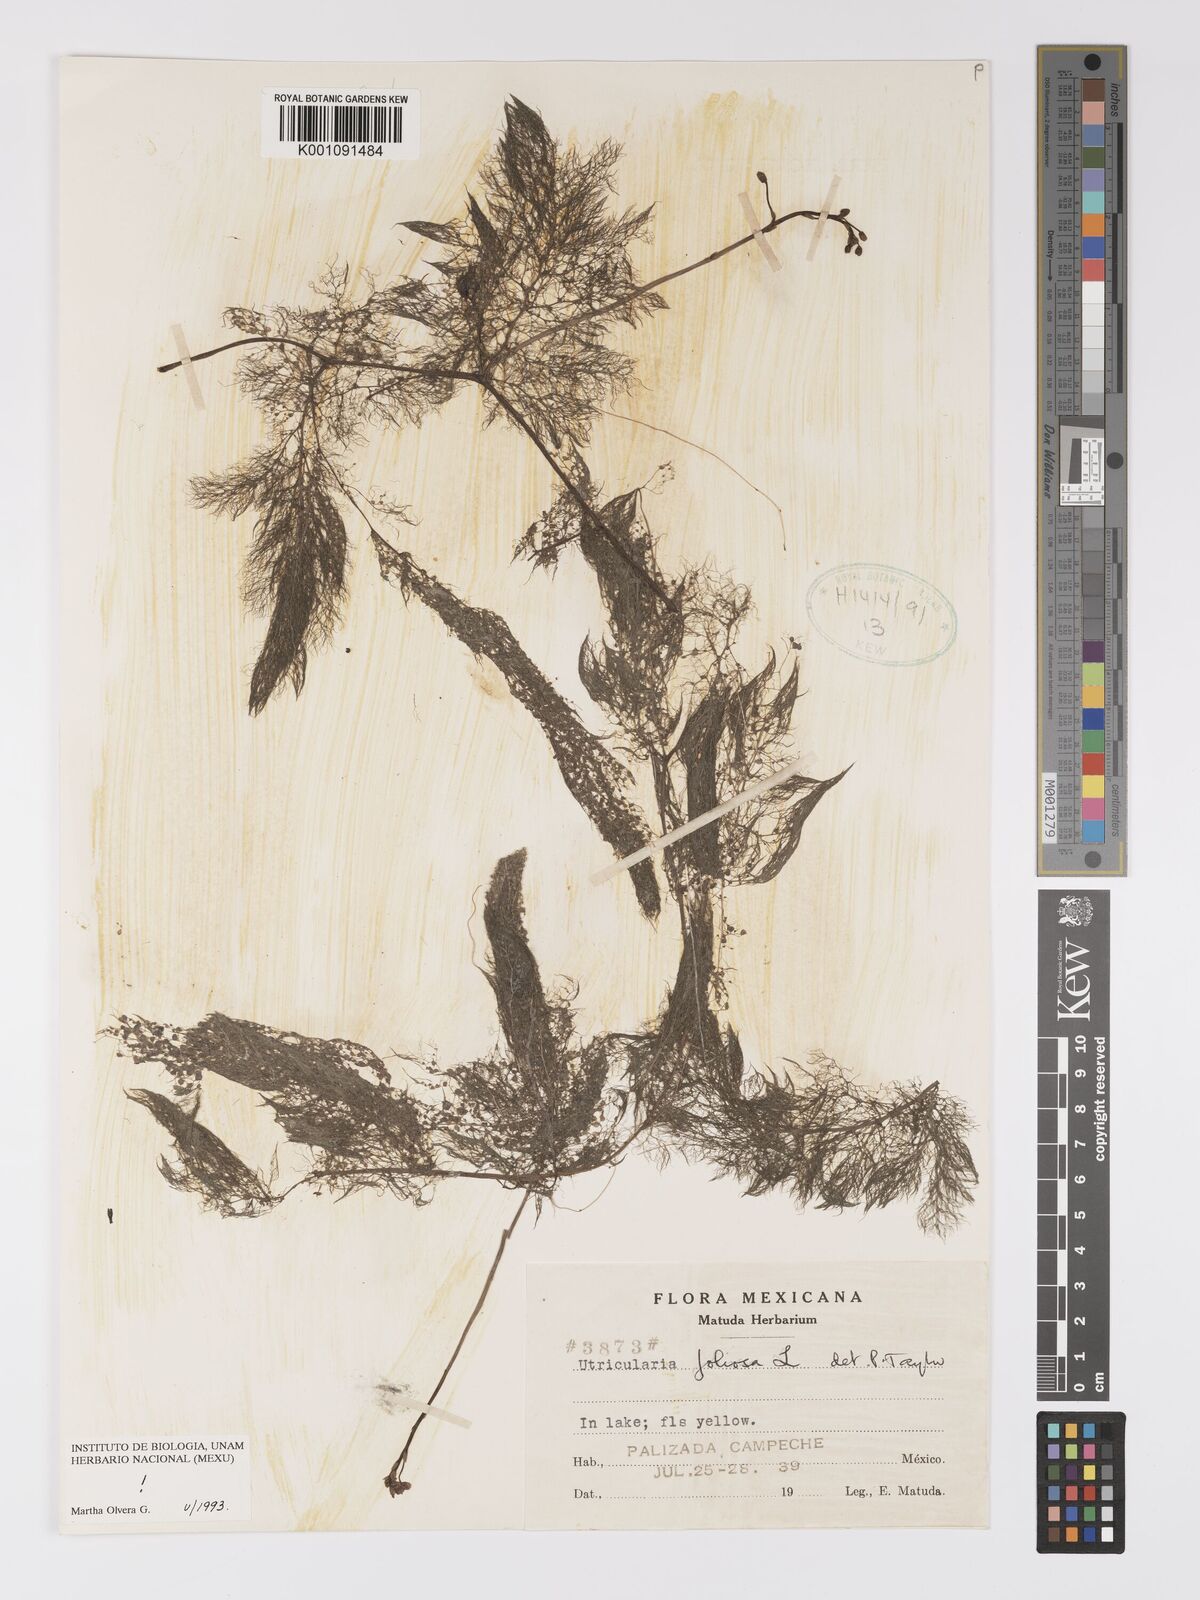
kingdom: Plantae
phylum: Tracheophyta
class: Magnoliopsida
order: Lamiales
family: Lentibulariaceae
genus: Utricularia
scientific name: Utricularia foliosa
